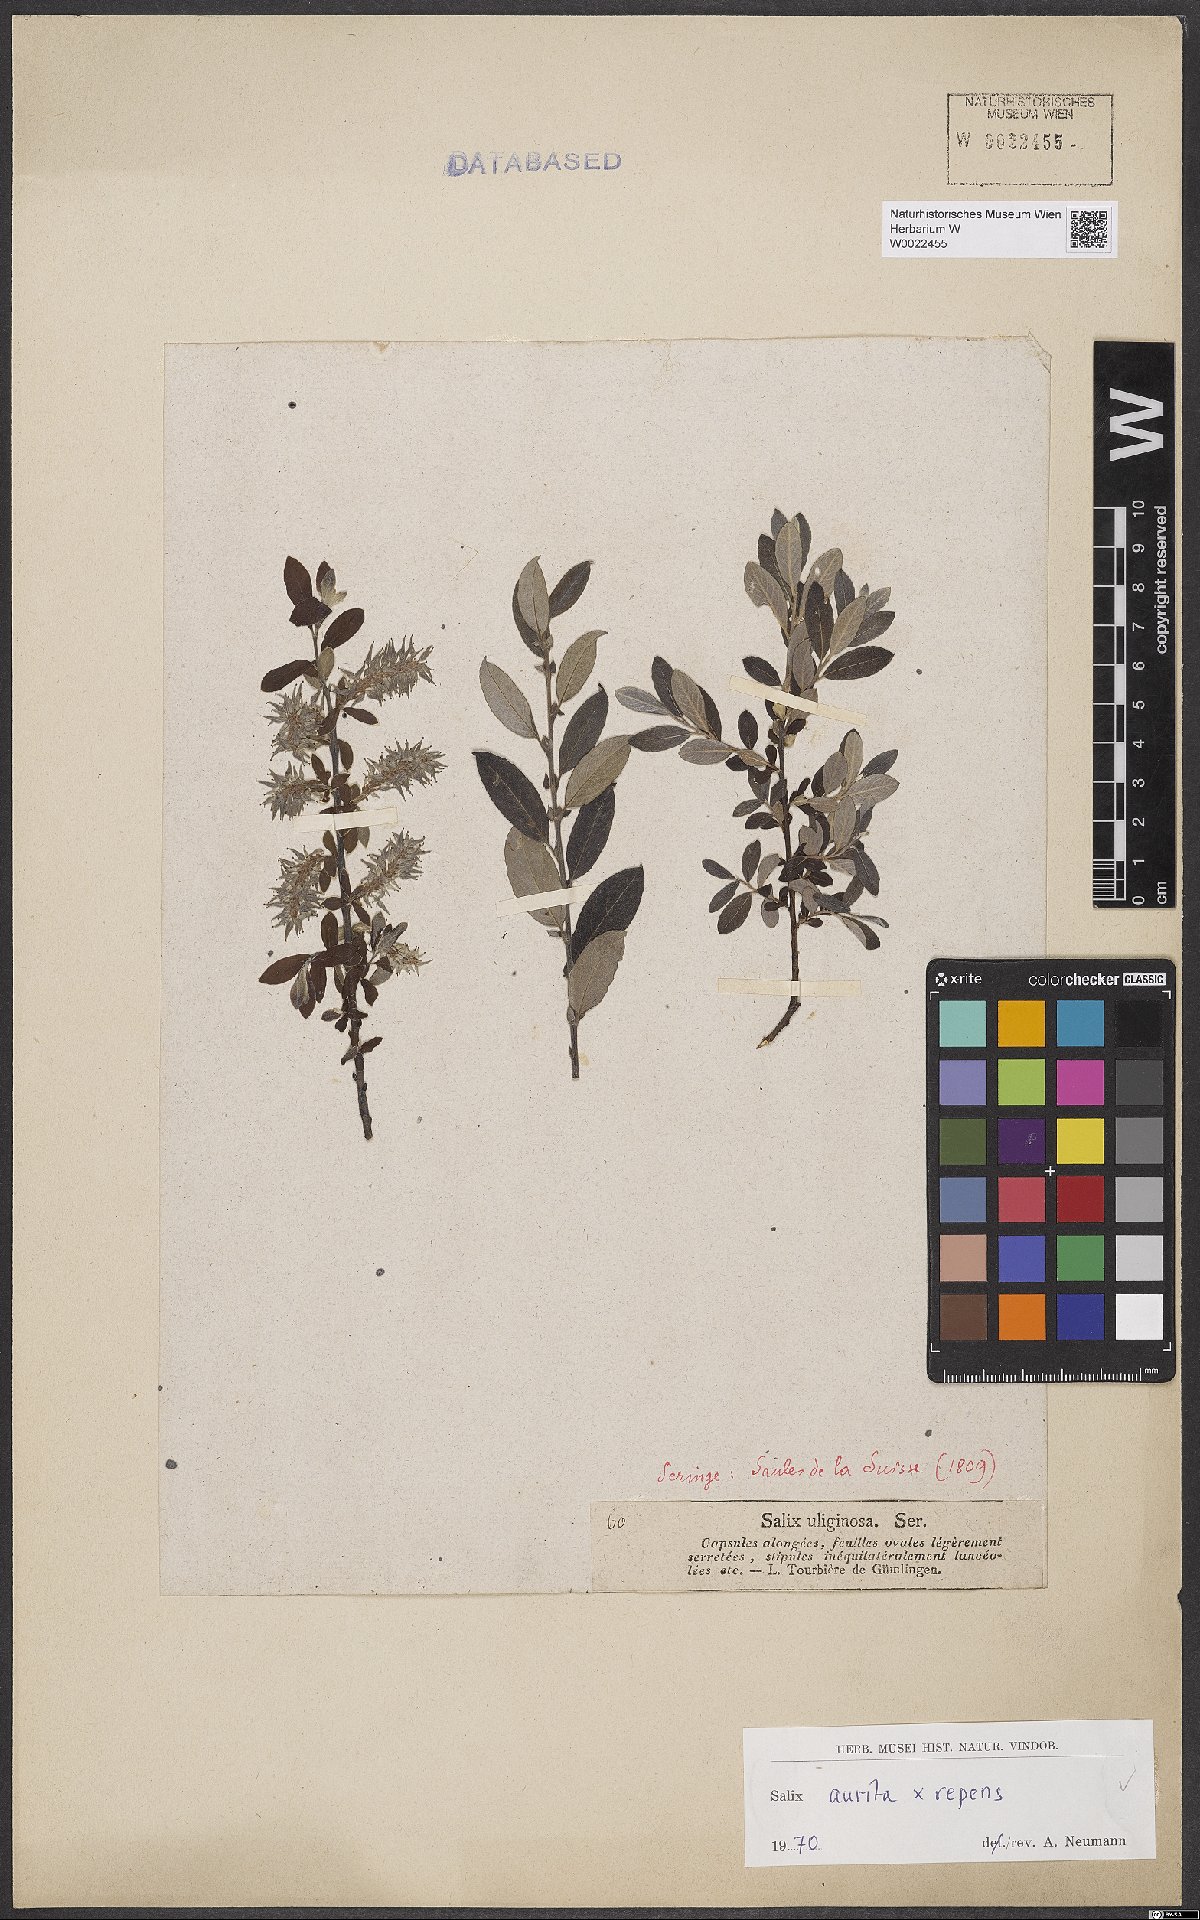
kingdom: Plantae
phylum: Tracheophyta
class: Magnoliopsida
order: Malpighiales
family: Salicaceae
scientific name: Salicaceae
